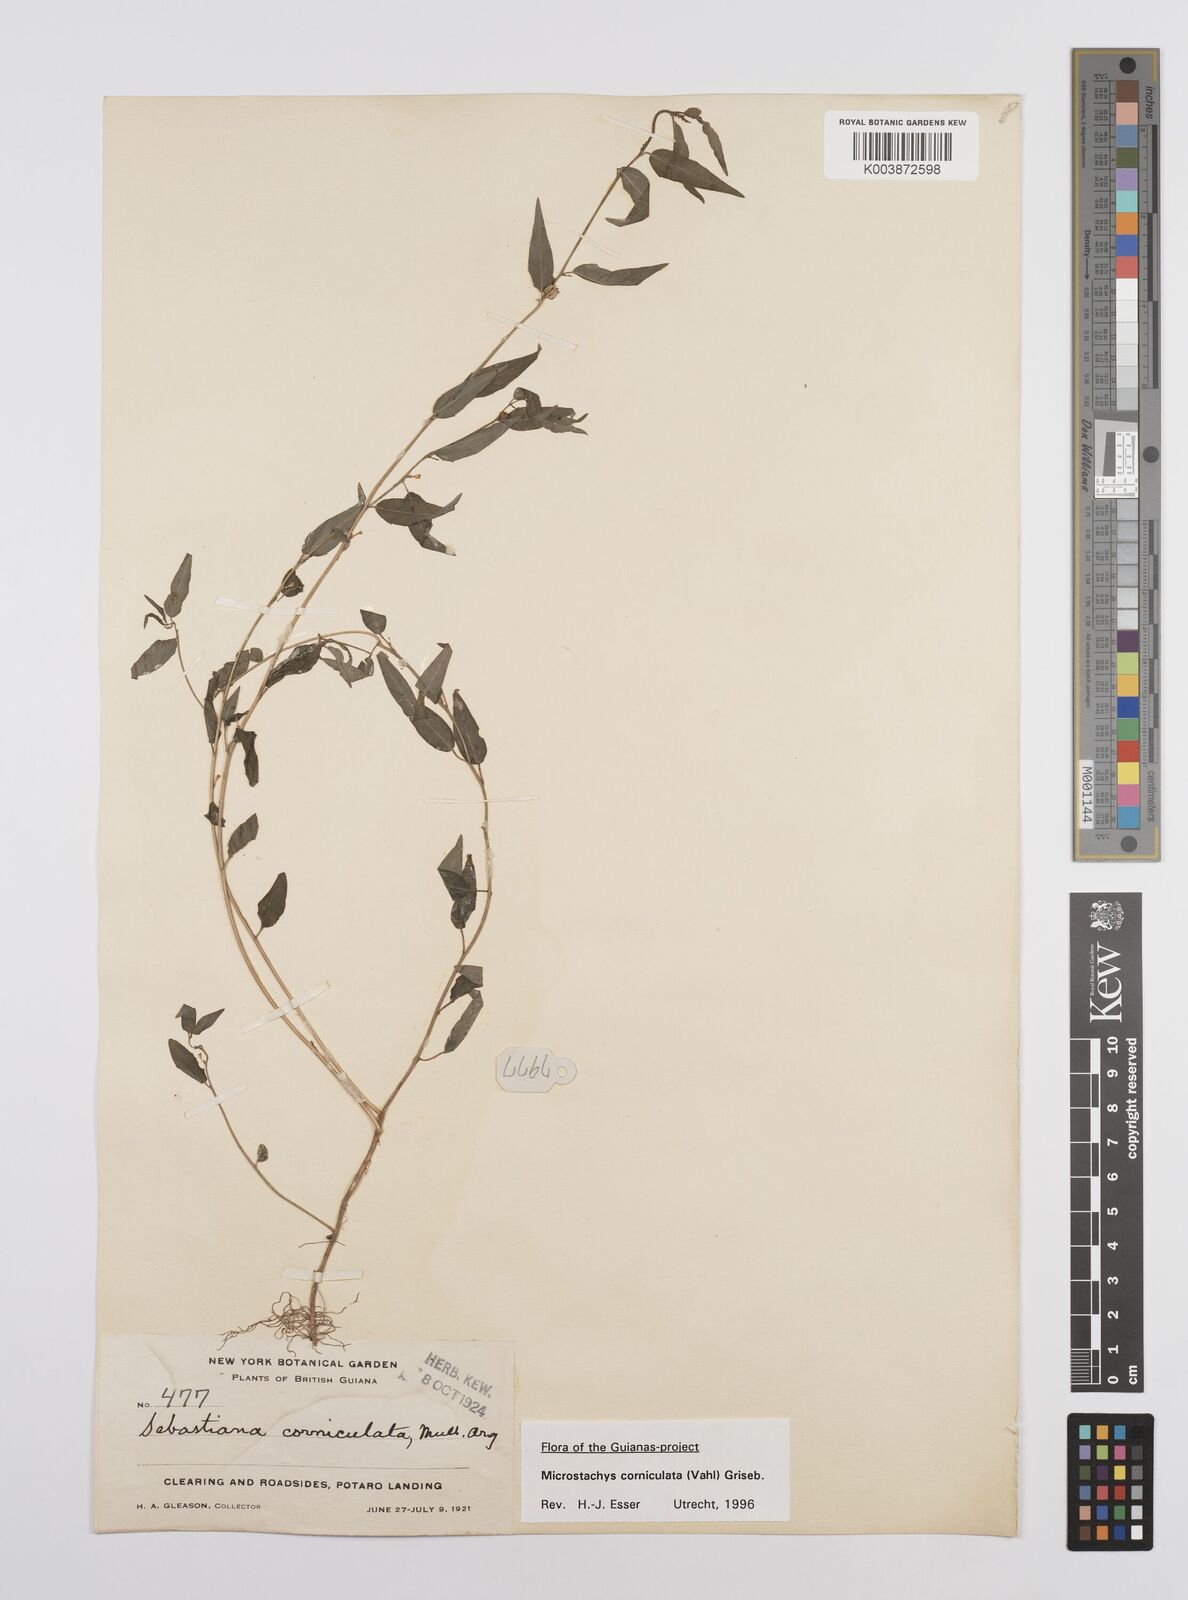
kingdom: Plantae
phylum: Tracheophyta
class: Magnoliopsida
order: Malpighiales
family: Euphorbiaceae
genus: Microstachys
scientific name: Microstachys corniculata
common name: Hato tejas
